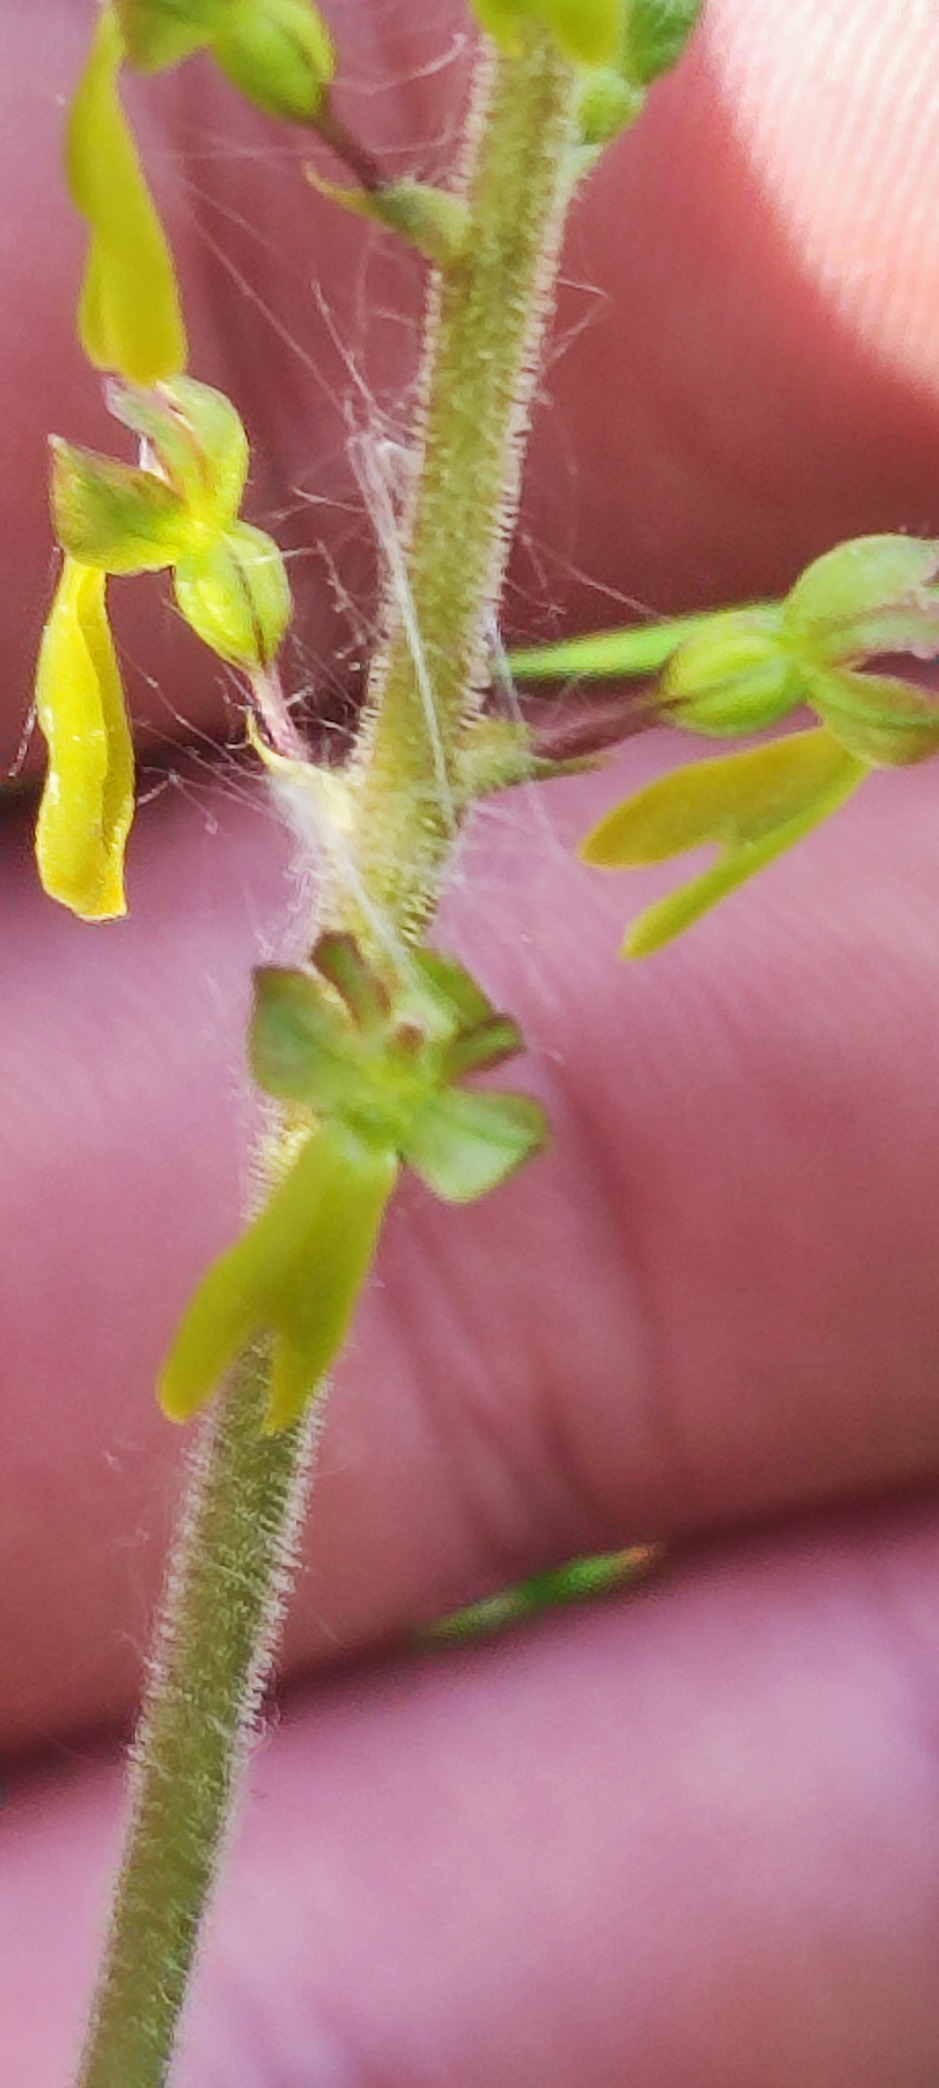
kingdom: Plantae
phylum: Tracheophyta
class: Liliopsida
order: Asparagales
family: Orchidaceae
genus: Neottia
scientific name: Neottia ovata
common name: Ægbladet fliglæbe
